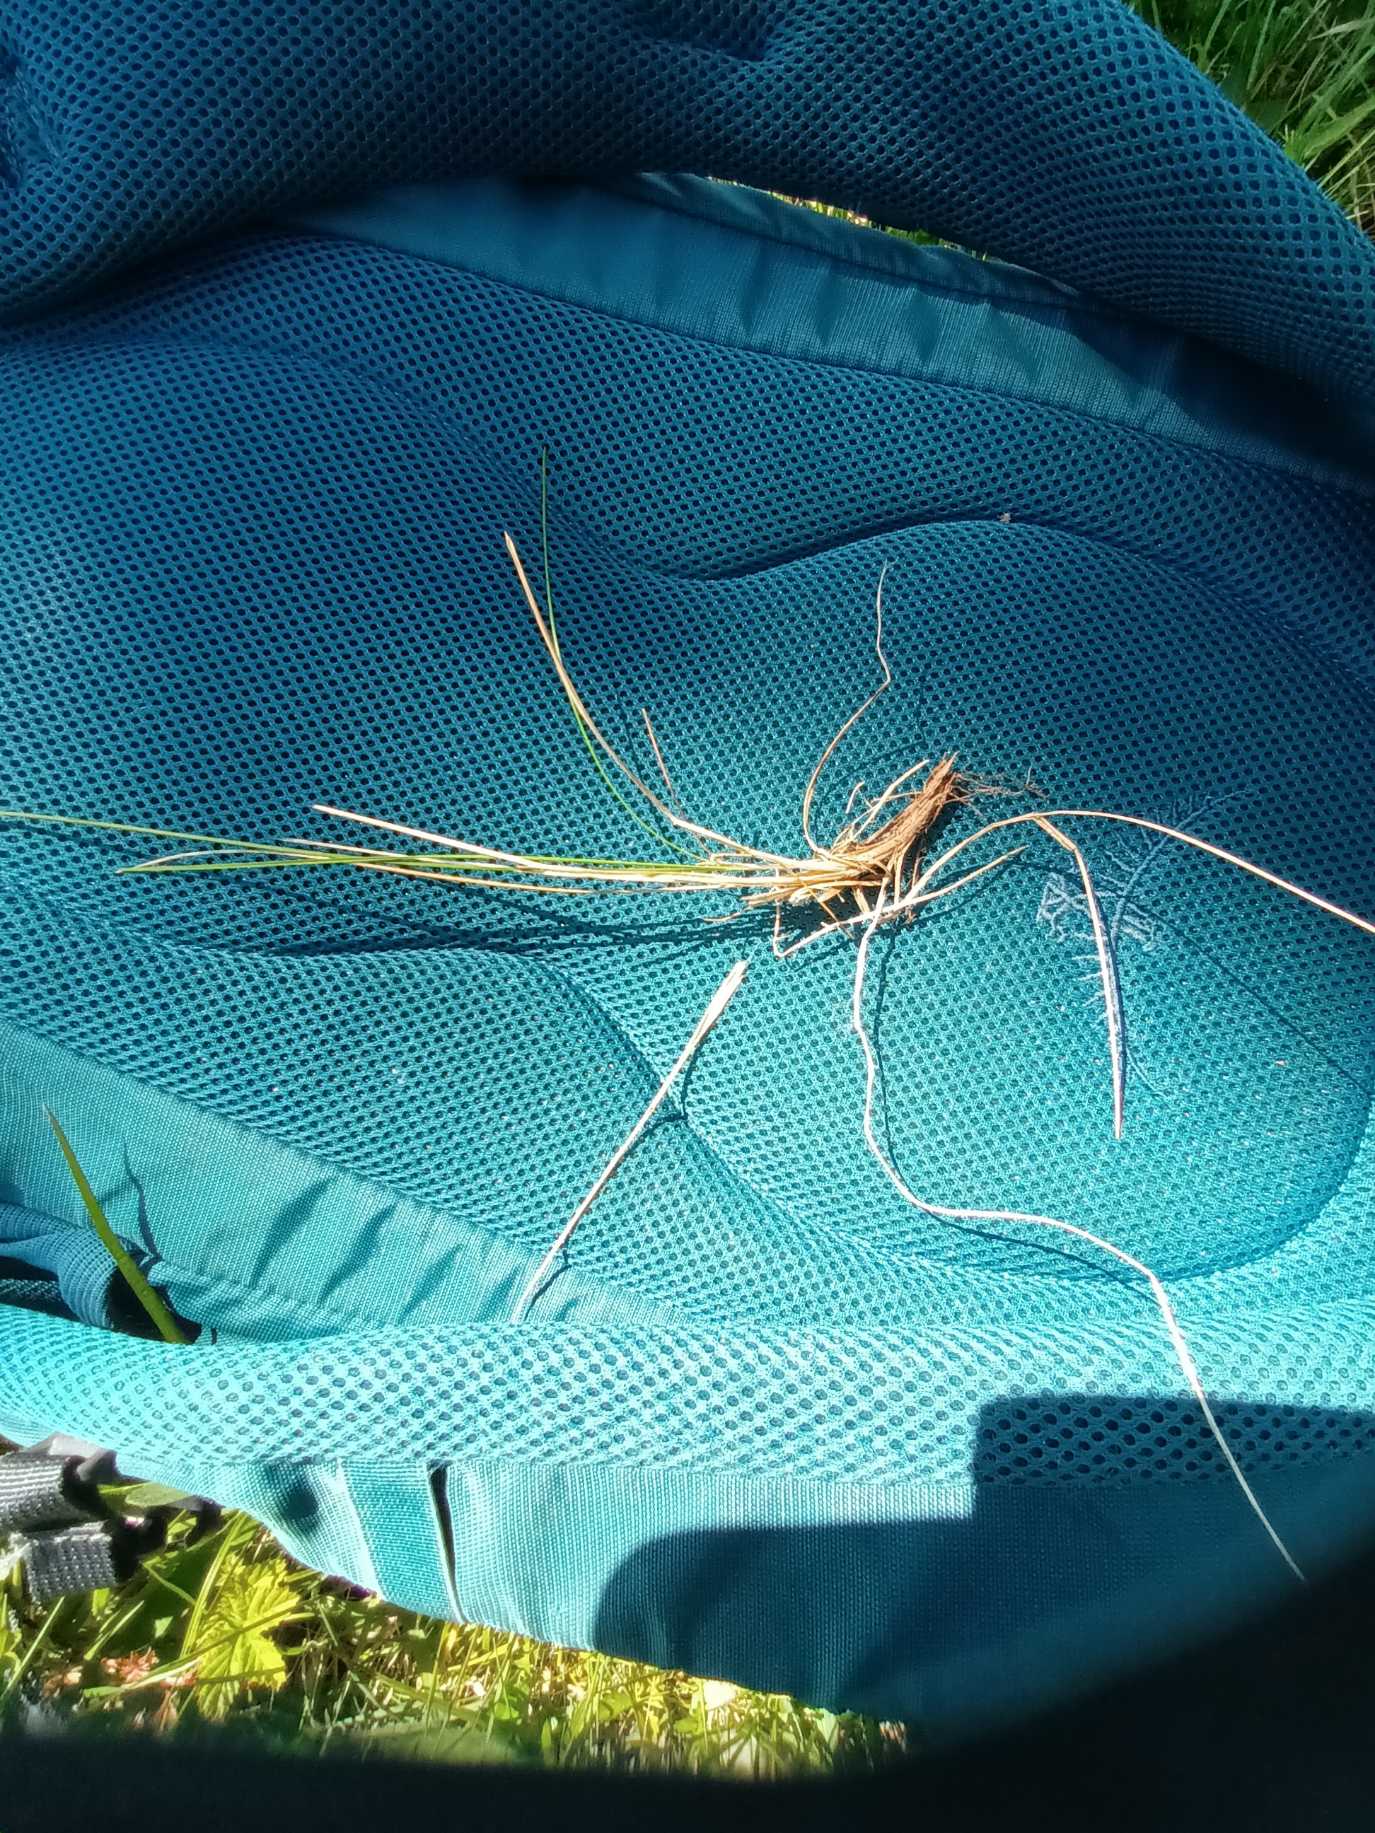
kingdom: Plantae
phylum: Tracheophyta
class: Liliopsida
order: Poales
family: Poaceae
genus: Festuca
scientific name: Festuca rubra
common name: Rød svingel
